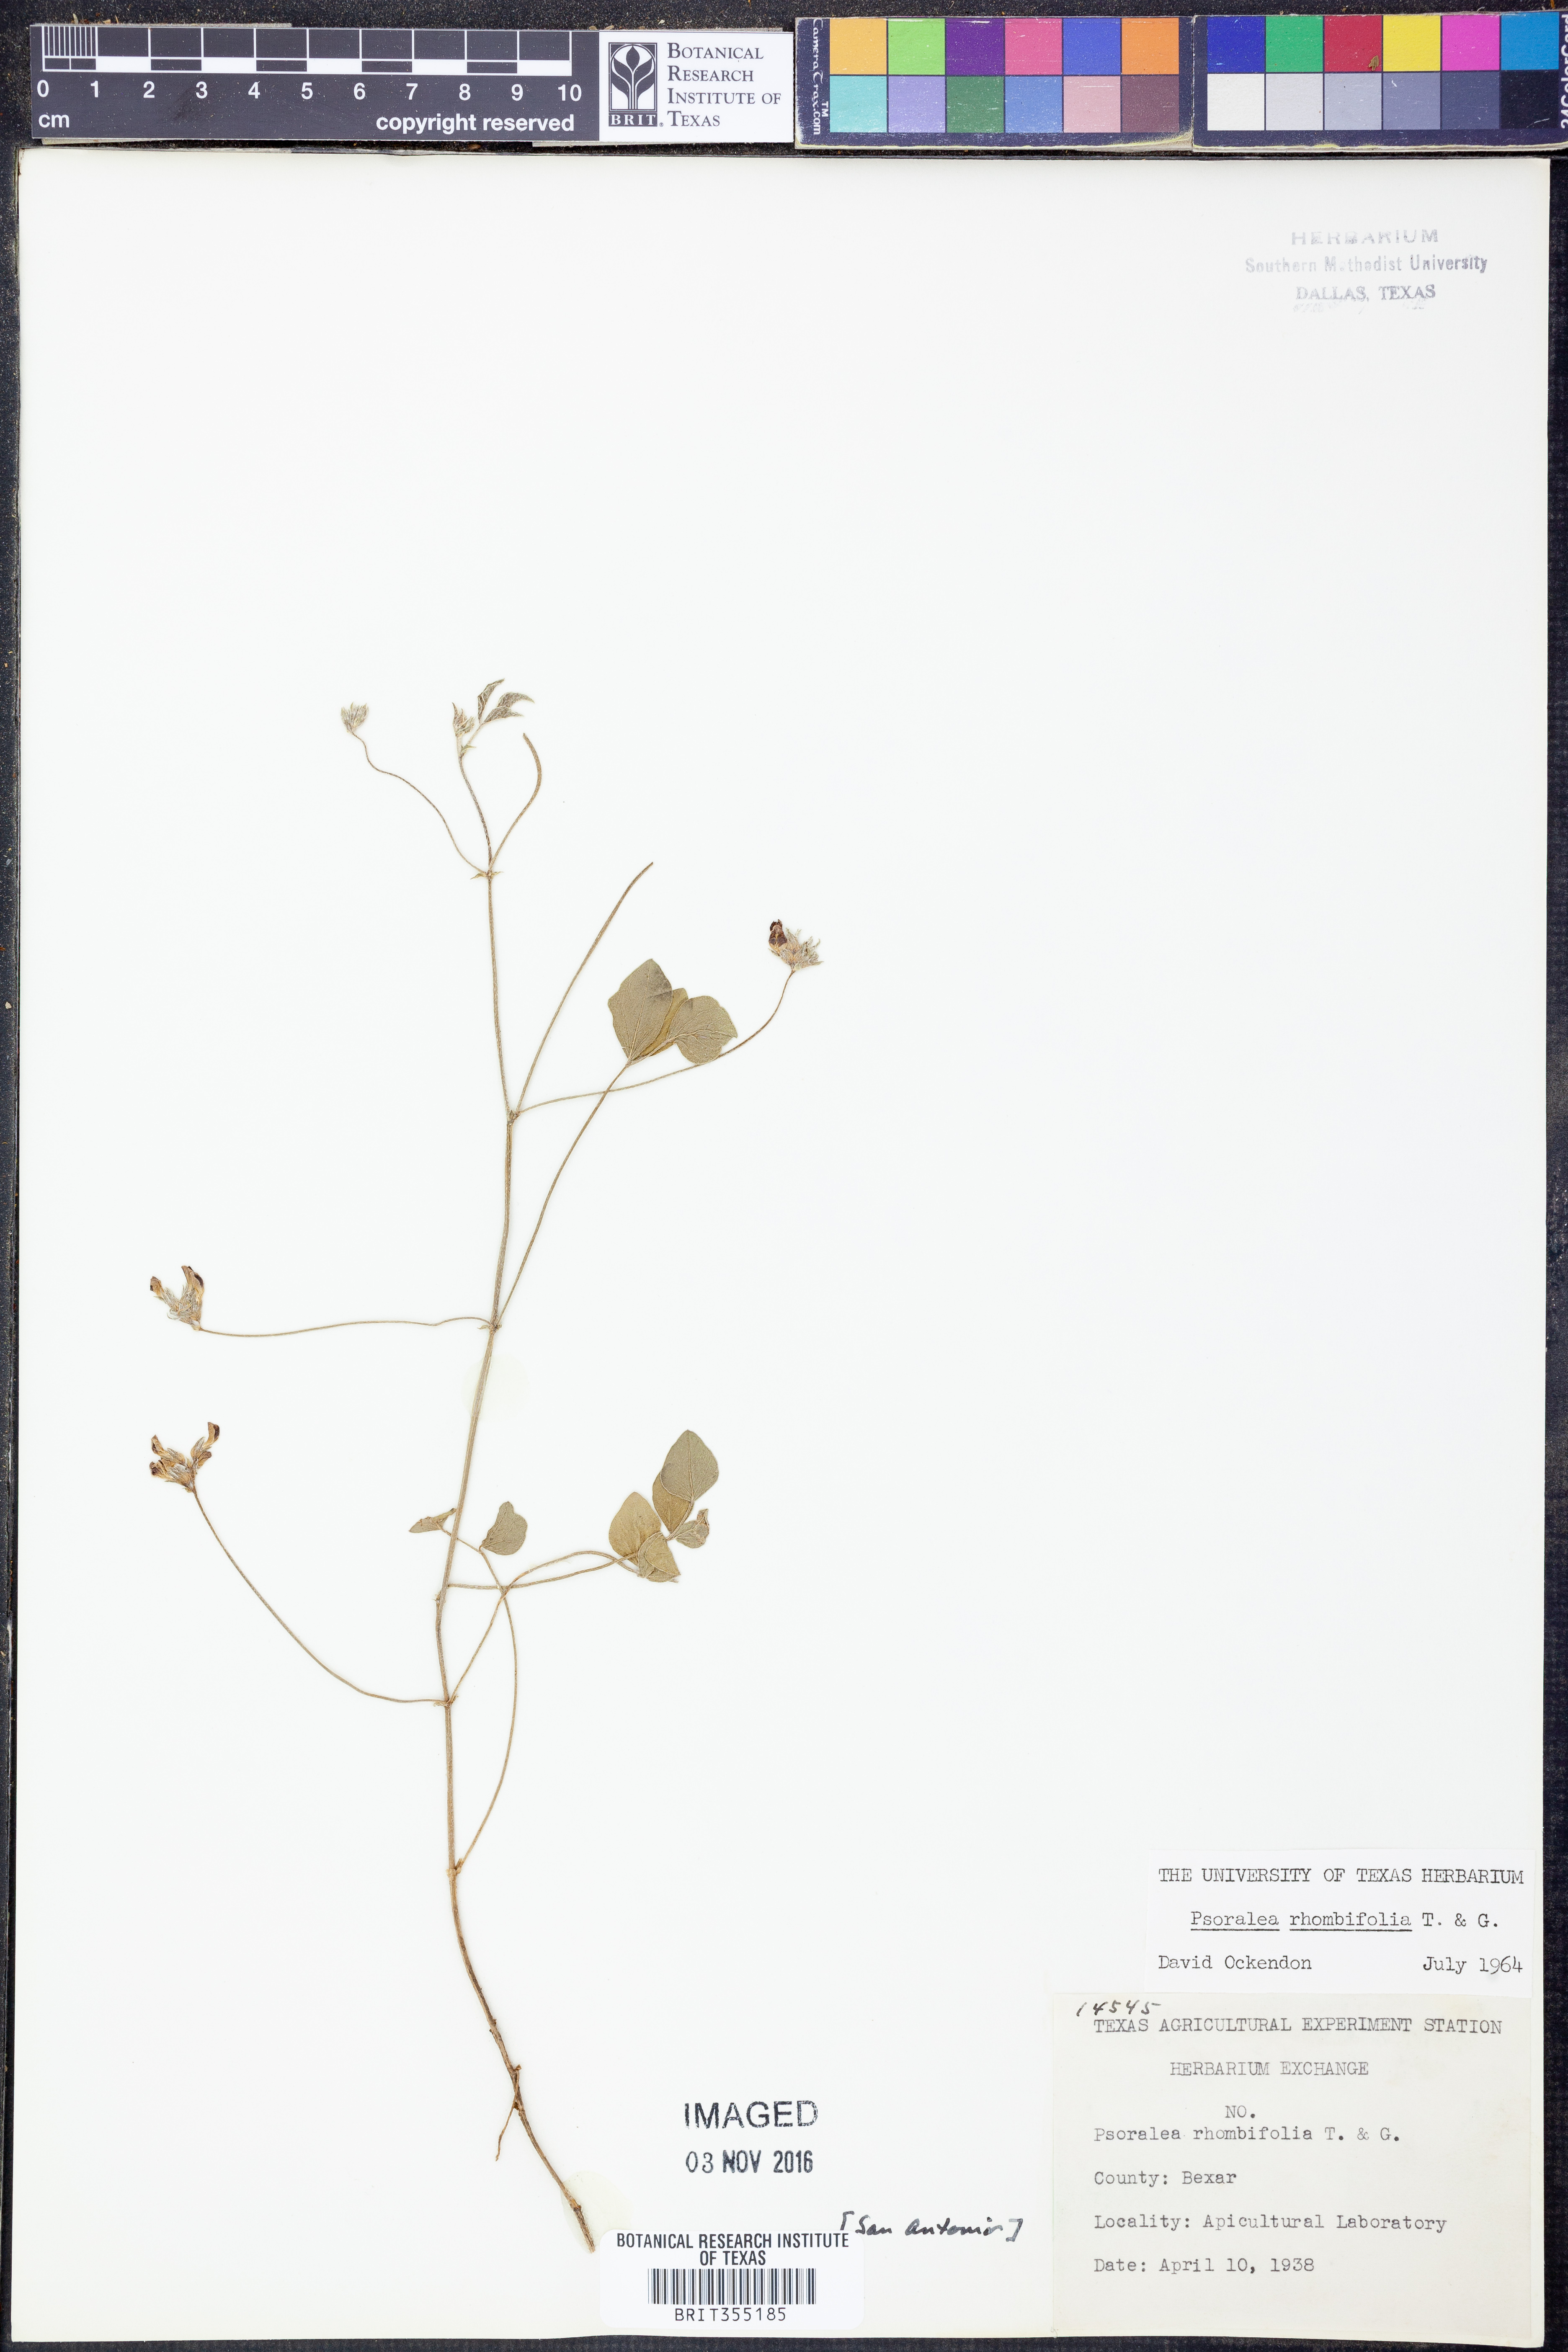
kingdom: Plantae
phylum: Tracheophyta
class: Magnoliopsida
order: Fabales
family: Fabaceae
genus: Pediomelum
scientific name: Pediomelum rhombifolium
